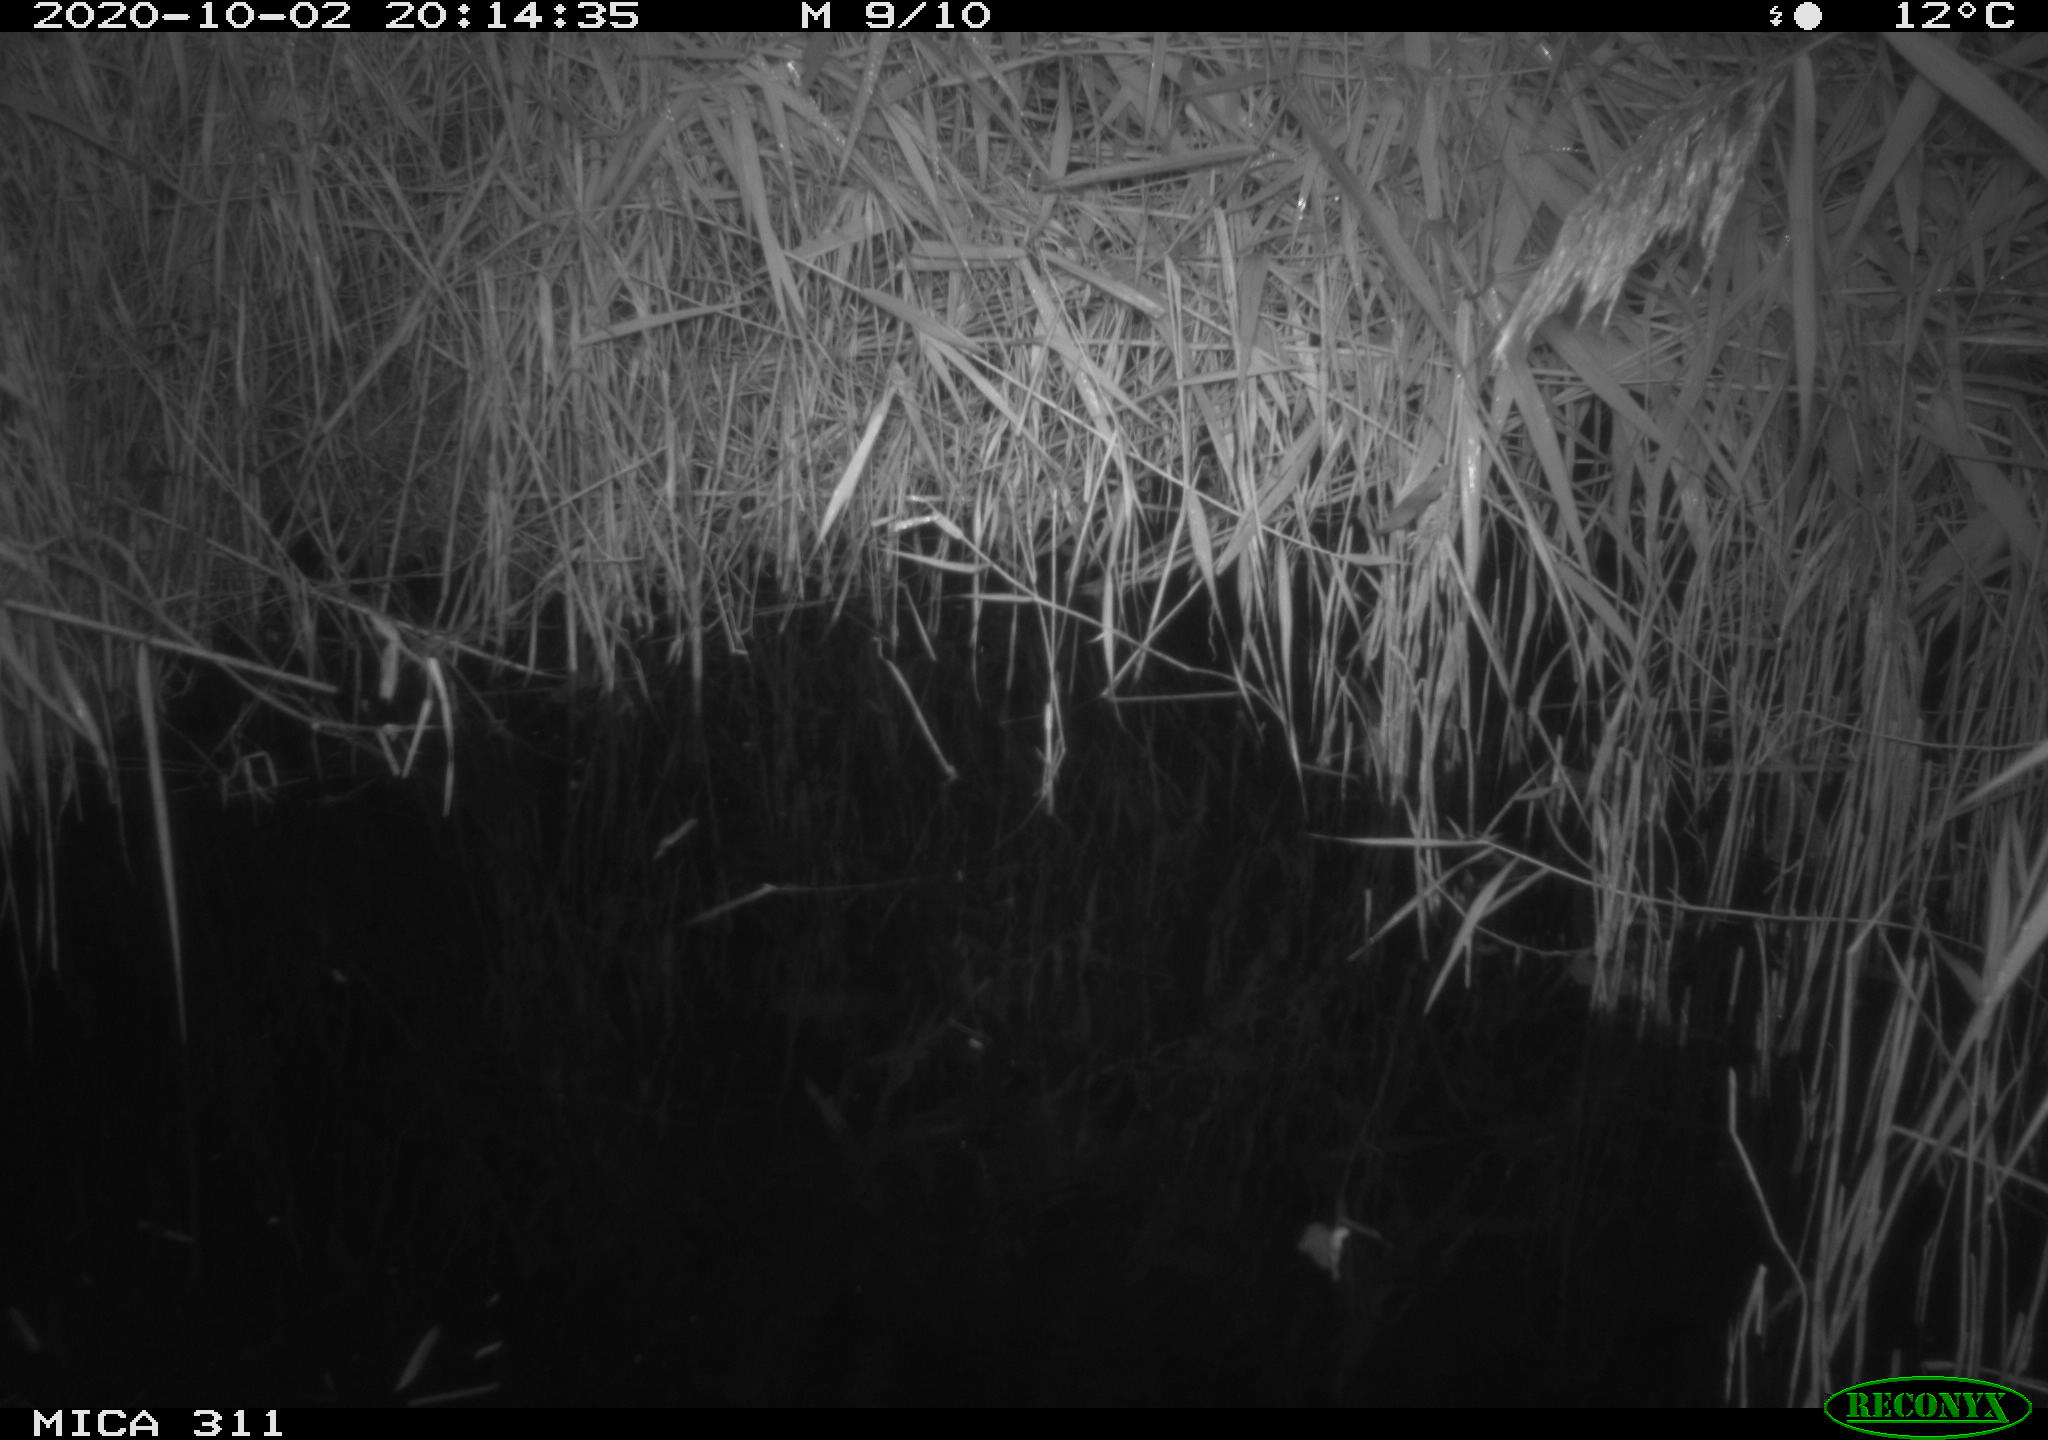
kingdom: Animalia
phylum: Chordata
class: Mammalia
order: Rodentia
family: Muridae
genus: Rattus
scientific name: Rattus norvegicus
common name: Brown rat
